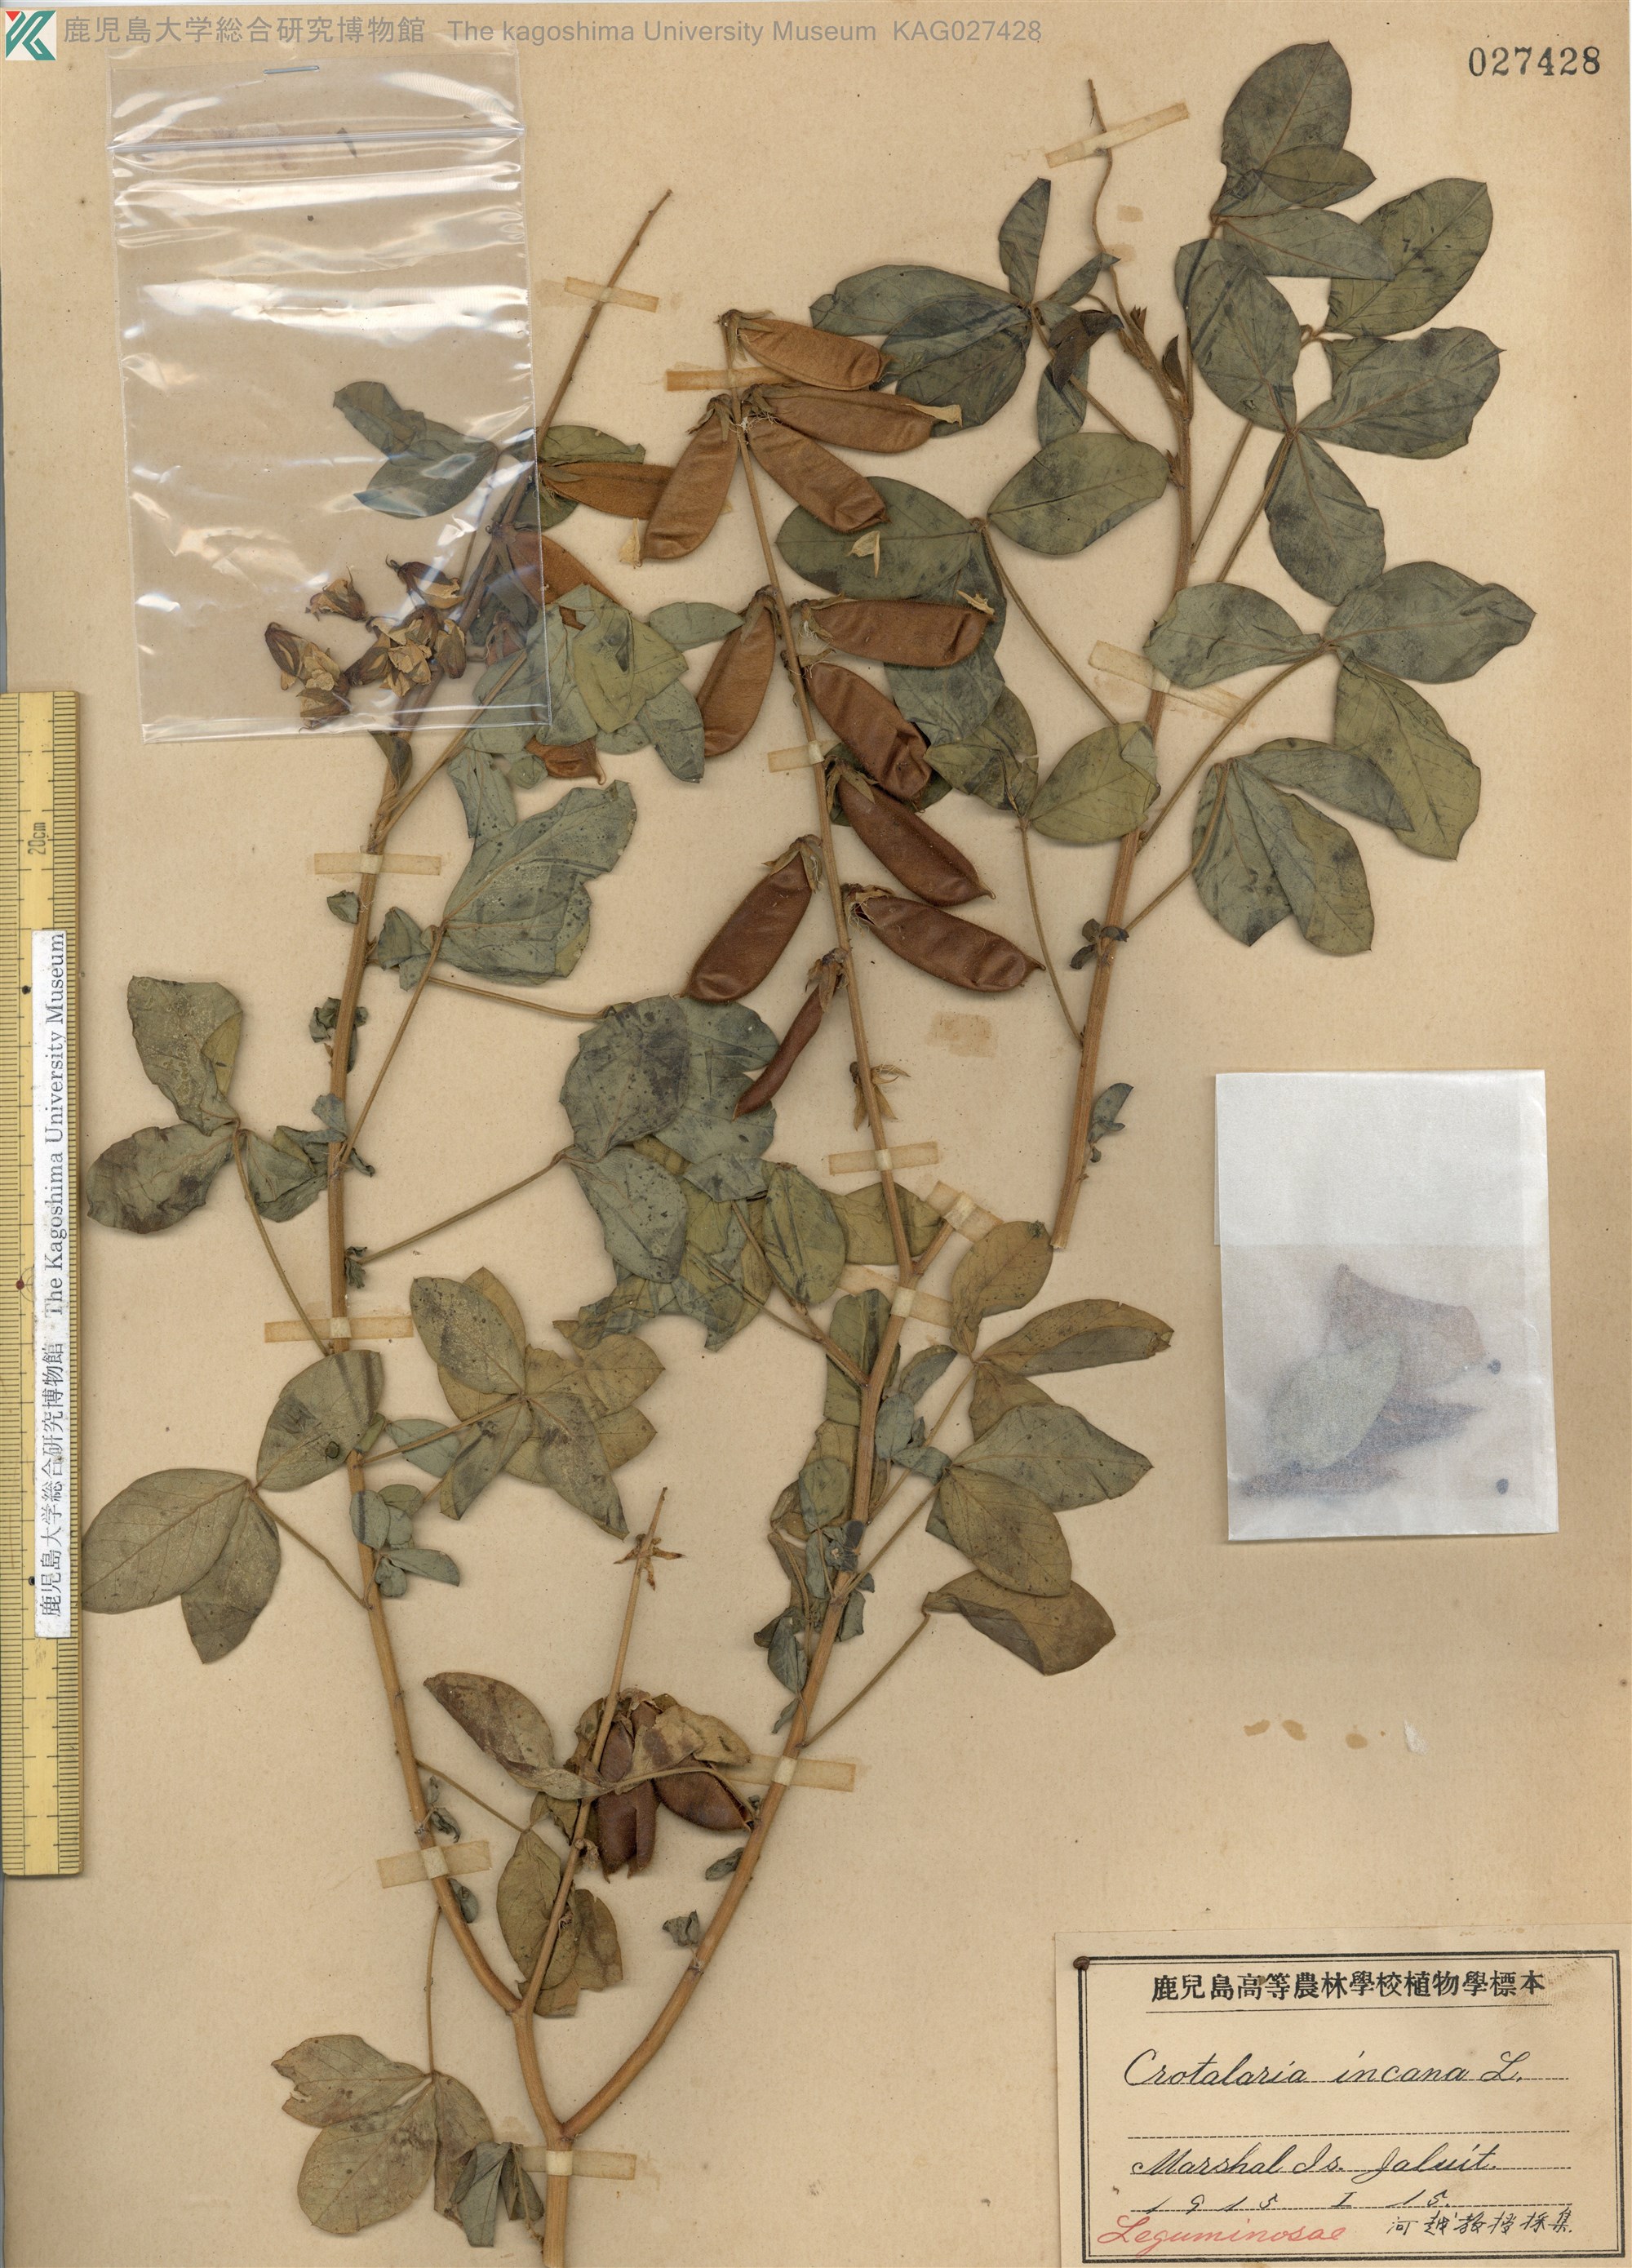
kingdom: Plantae
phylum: Tracheophyta
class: Magnoliopsida
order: Fabales
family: Fabaceae
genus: Crotalaria
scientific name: Crotalaria incana
